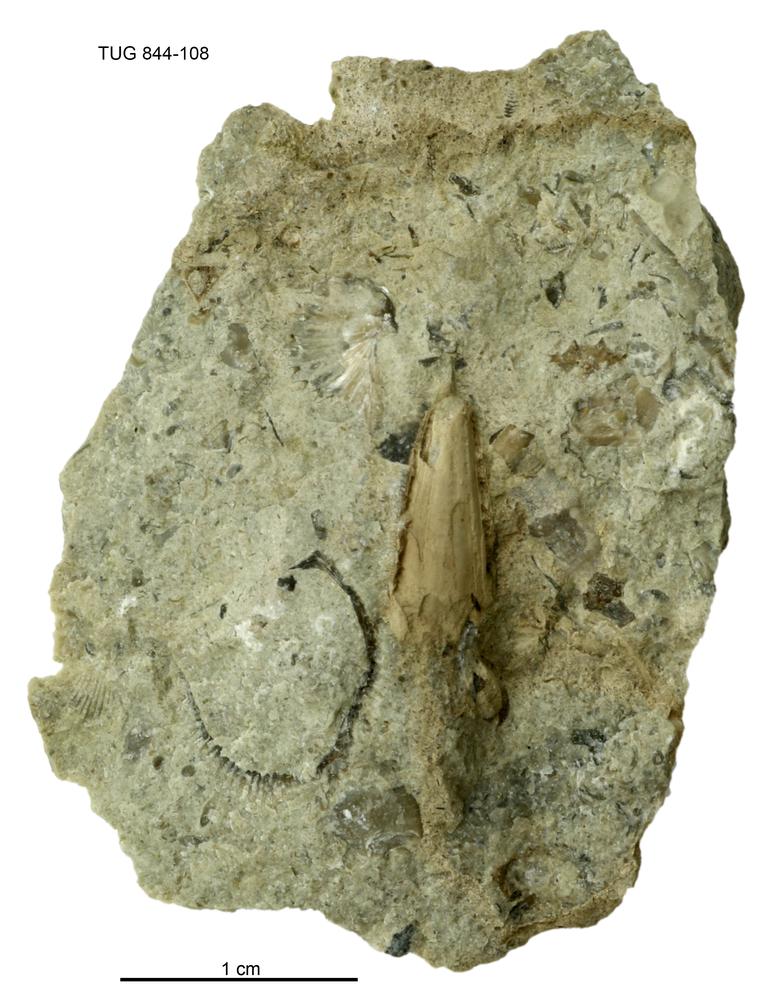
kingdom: Animalia
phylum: Annelida
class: Polychaeta
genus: Hyolithes
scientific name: Hyolithes
